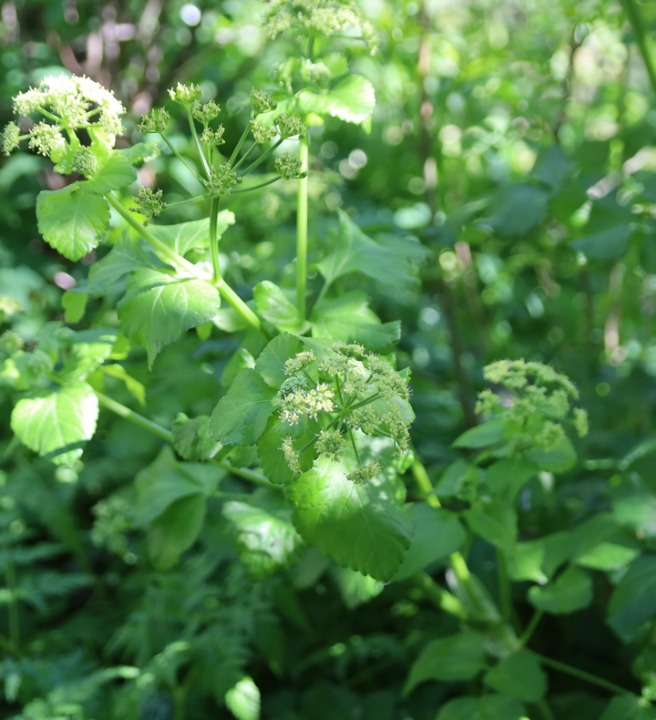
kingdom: Plantae
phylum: Tracheophyta
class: Magnoliopsida
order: Apiales
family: Apiaceae
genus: Smyrnium
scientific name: Smyrnium olusatrum
